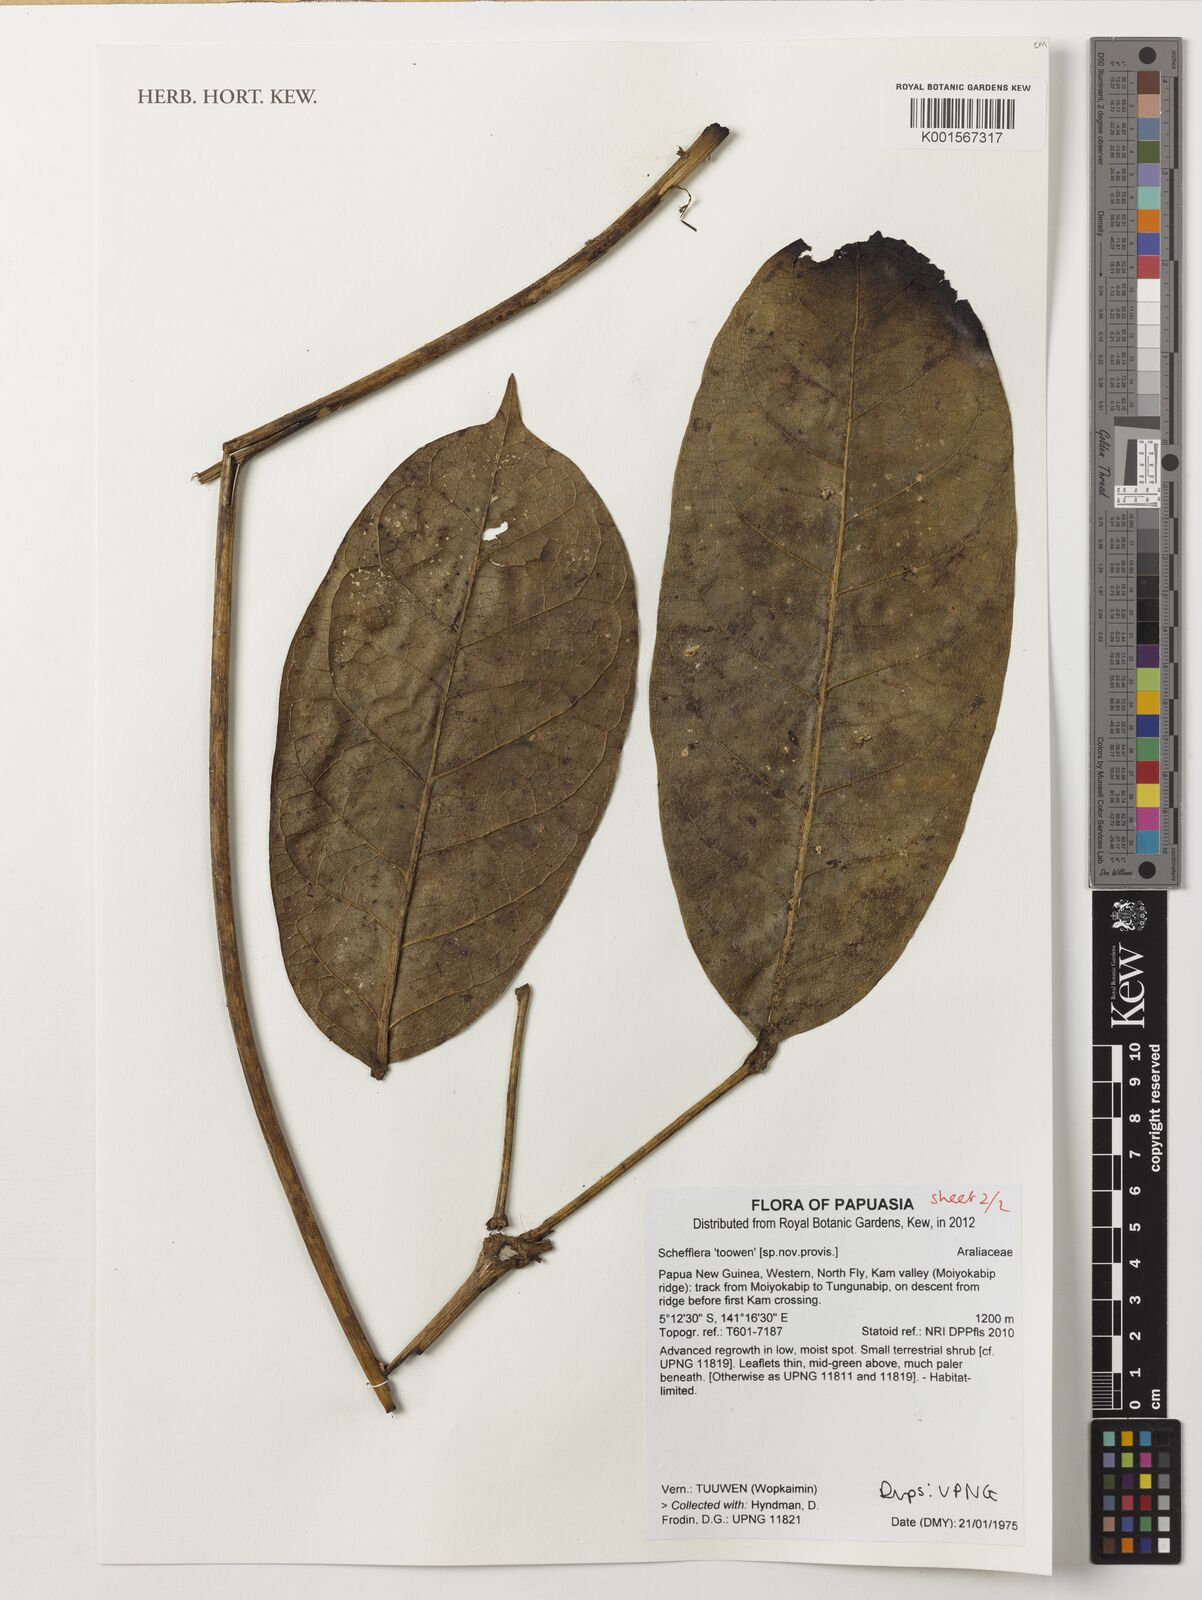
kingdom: Plantae
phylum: Tracheophyta
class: Magnoliopsida
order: Apiales
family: Araliaceae
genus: Schefflera
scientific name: Schefflera
